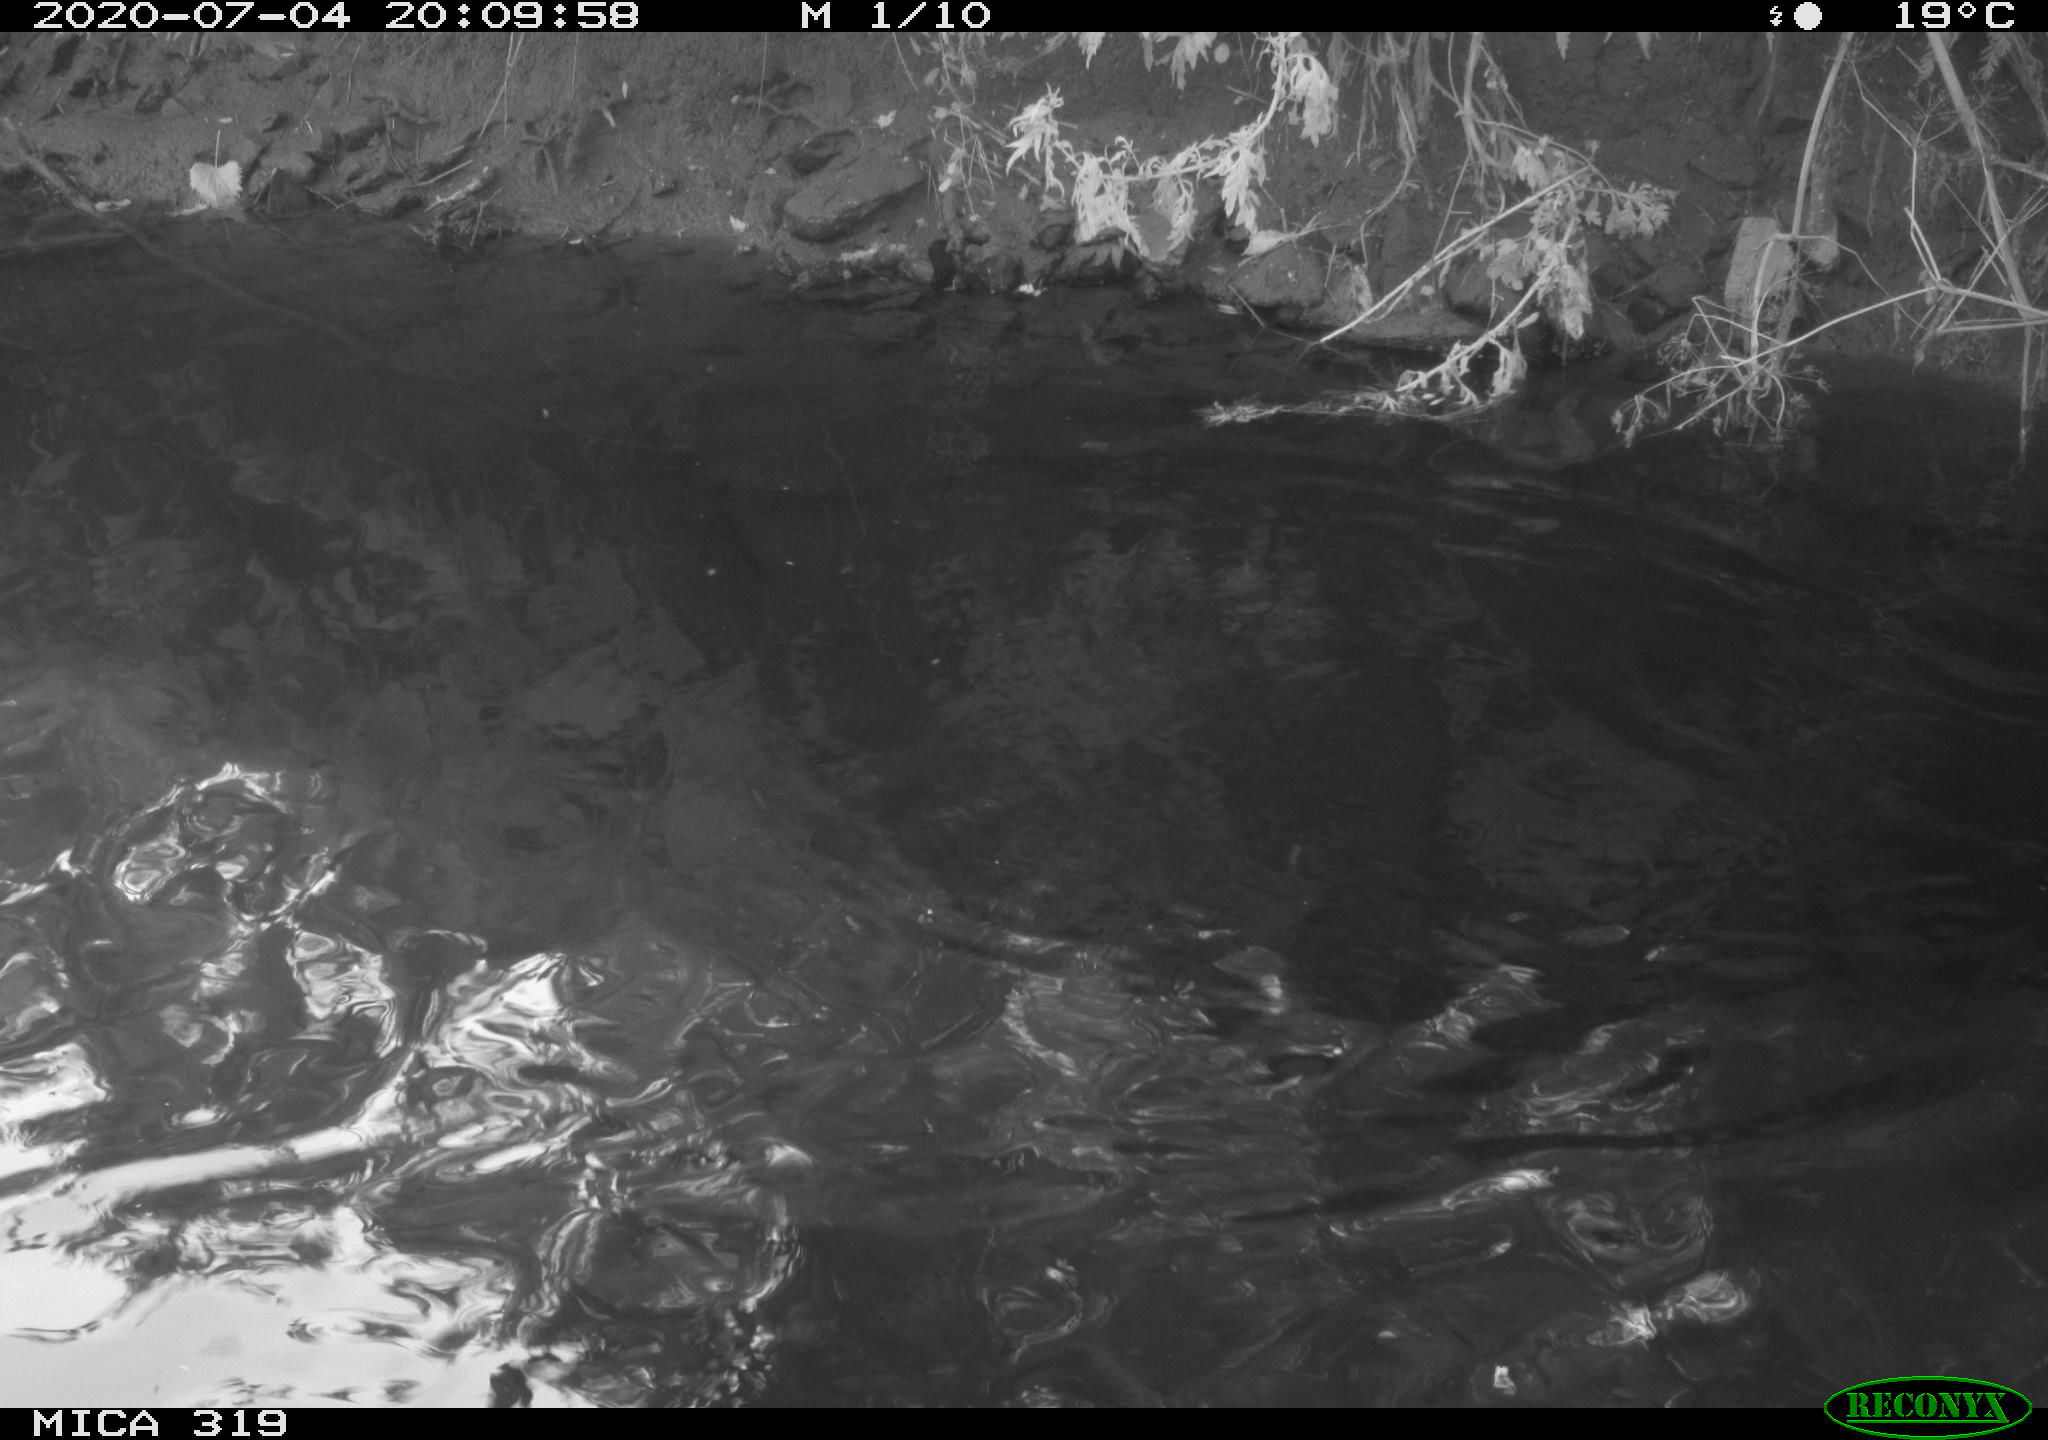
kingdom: Animalia
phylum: Chordata
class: Aves
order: Anseriformes
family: Anatidae
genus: Anas
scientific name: Anas platyrhynchos
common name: Mallard
